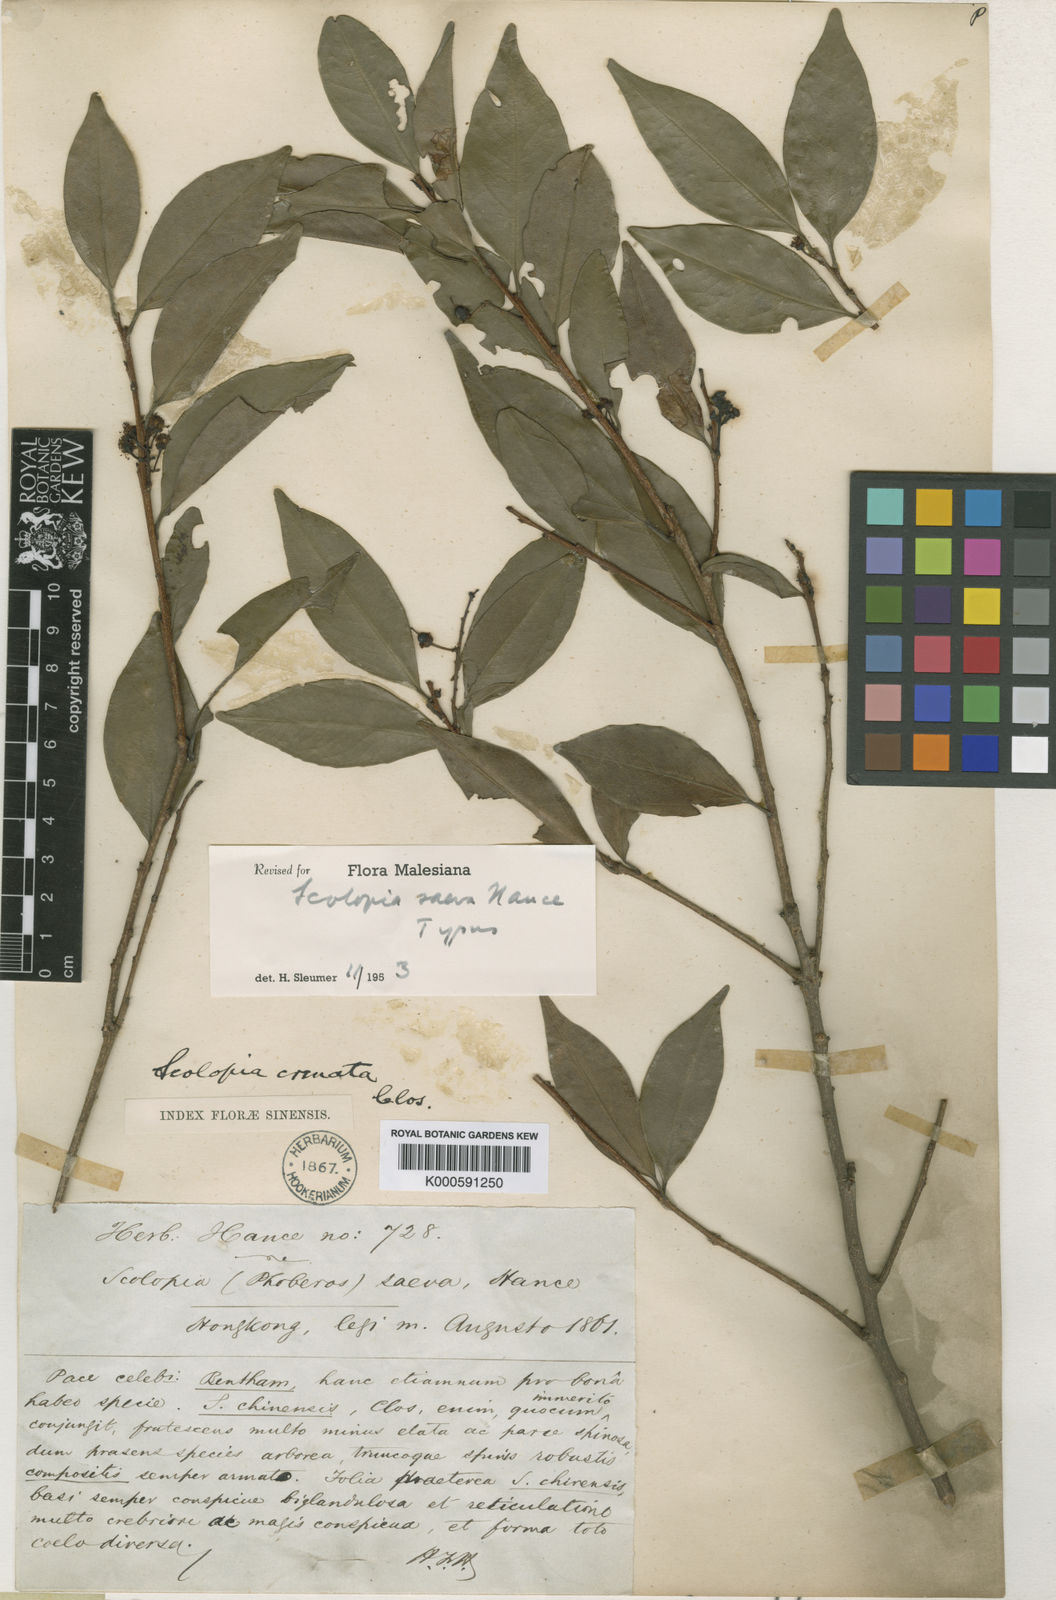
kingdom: Plantae
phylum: Tracheophyta
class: Magnoliopsida
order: Malpighiales
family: Salicaceae
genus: Scolopia
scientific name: Scolopia saeva
